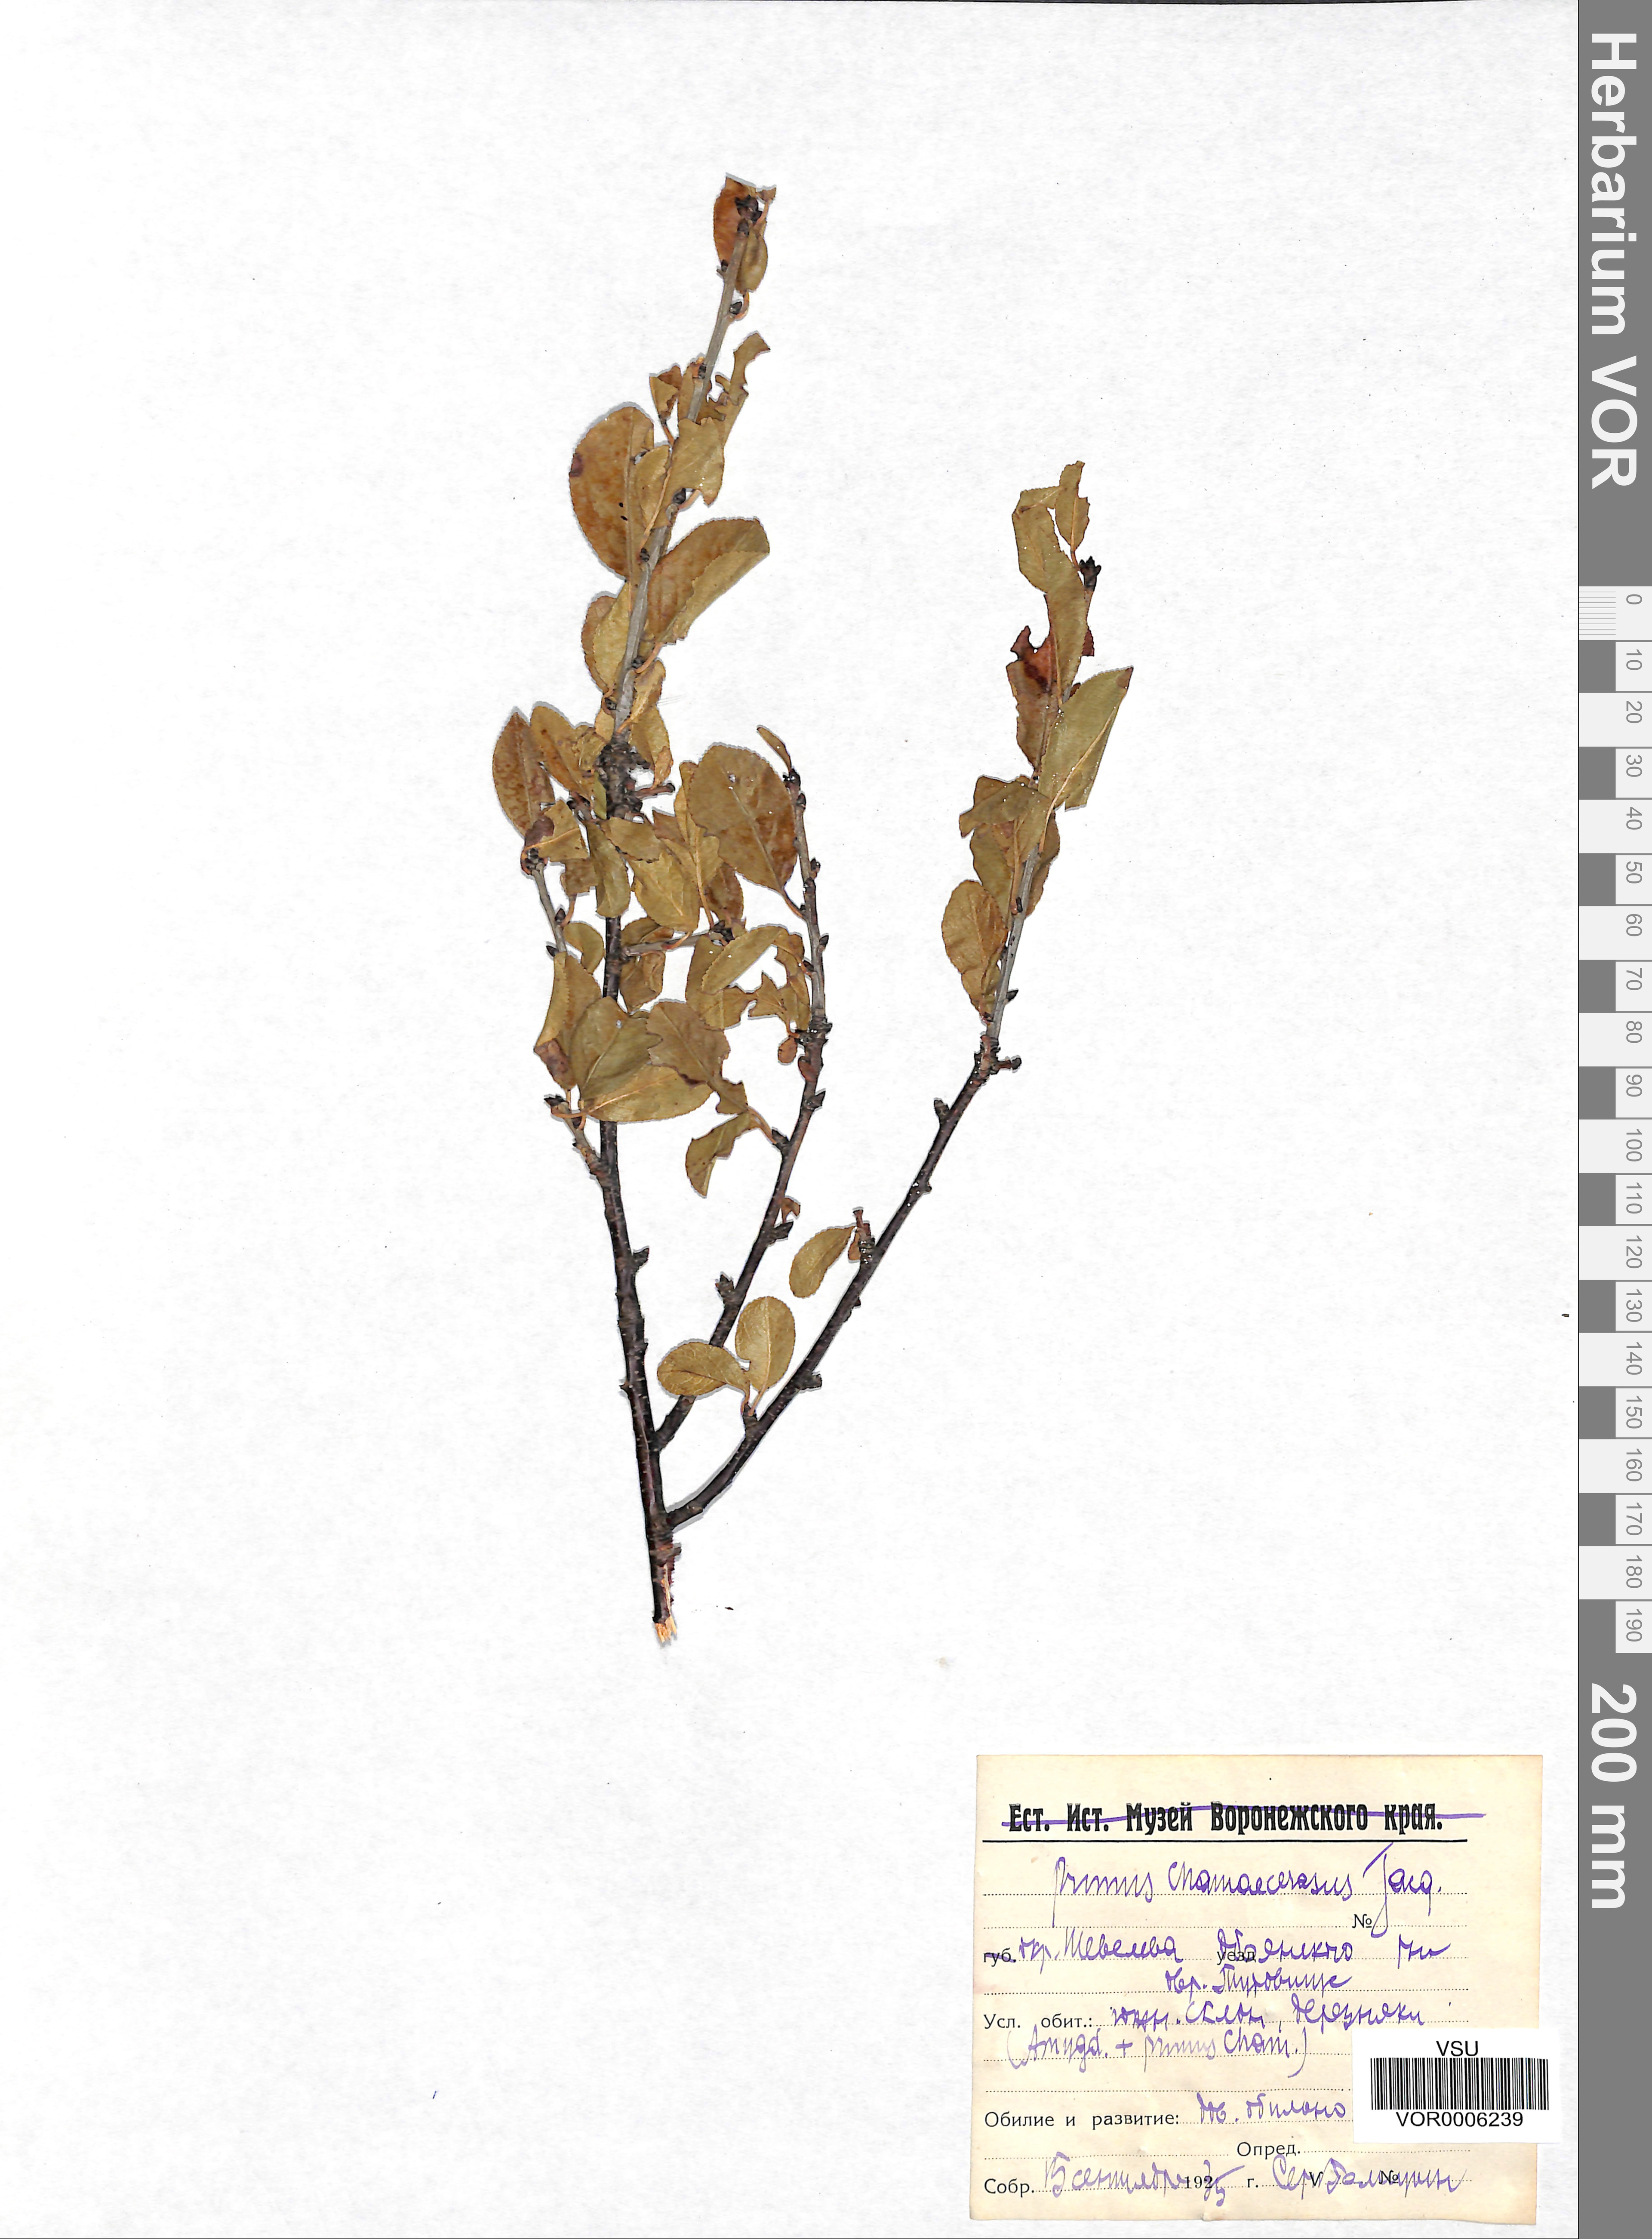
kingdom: Plantae
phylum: Tracheophyta
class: Magnoliopsida
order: Rosales
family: Rosaceae
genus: Prunus
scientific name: Prunus fruticosa
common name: European dwarf cherry
